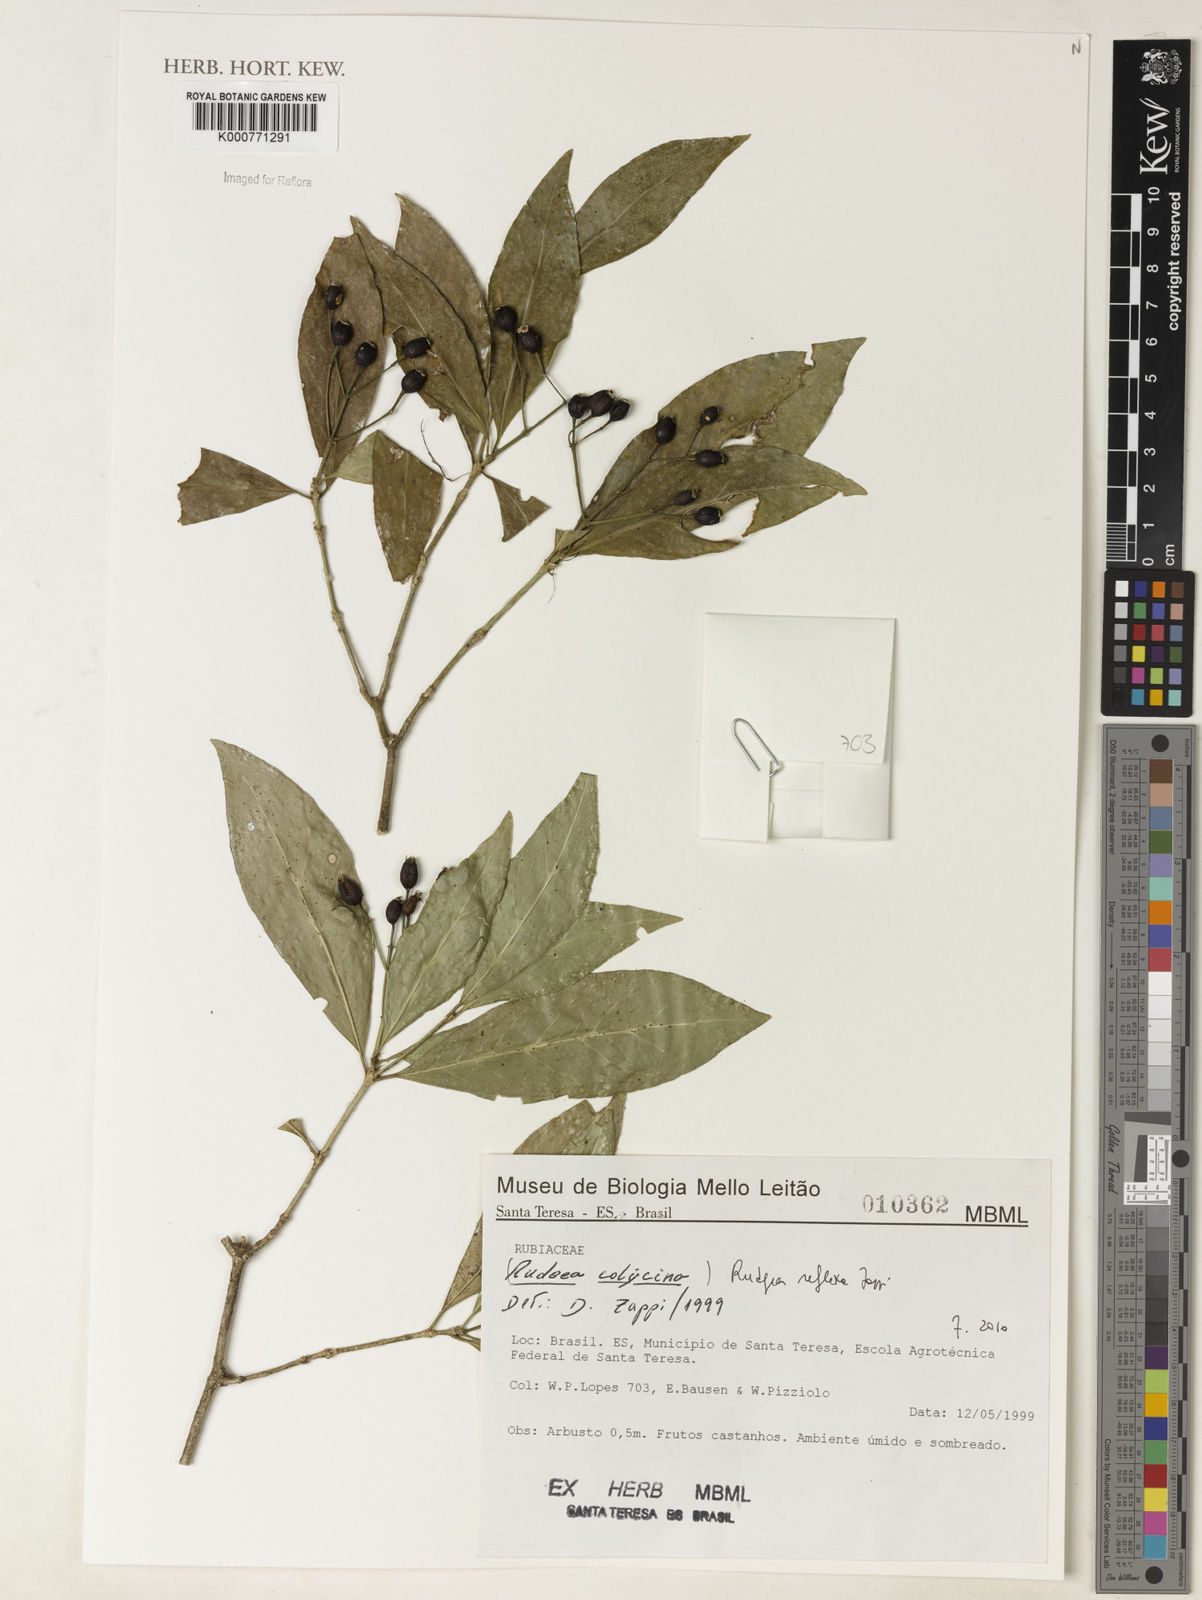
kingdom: Plantae
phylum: Tracheophyta
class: Magnoliopsida
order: Gentianales
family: Rubiaceae
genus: Rudgea
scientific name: Rudgea
